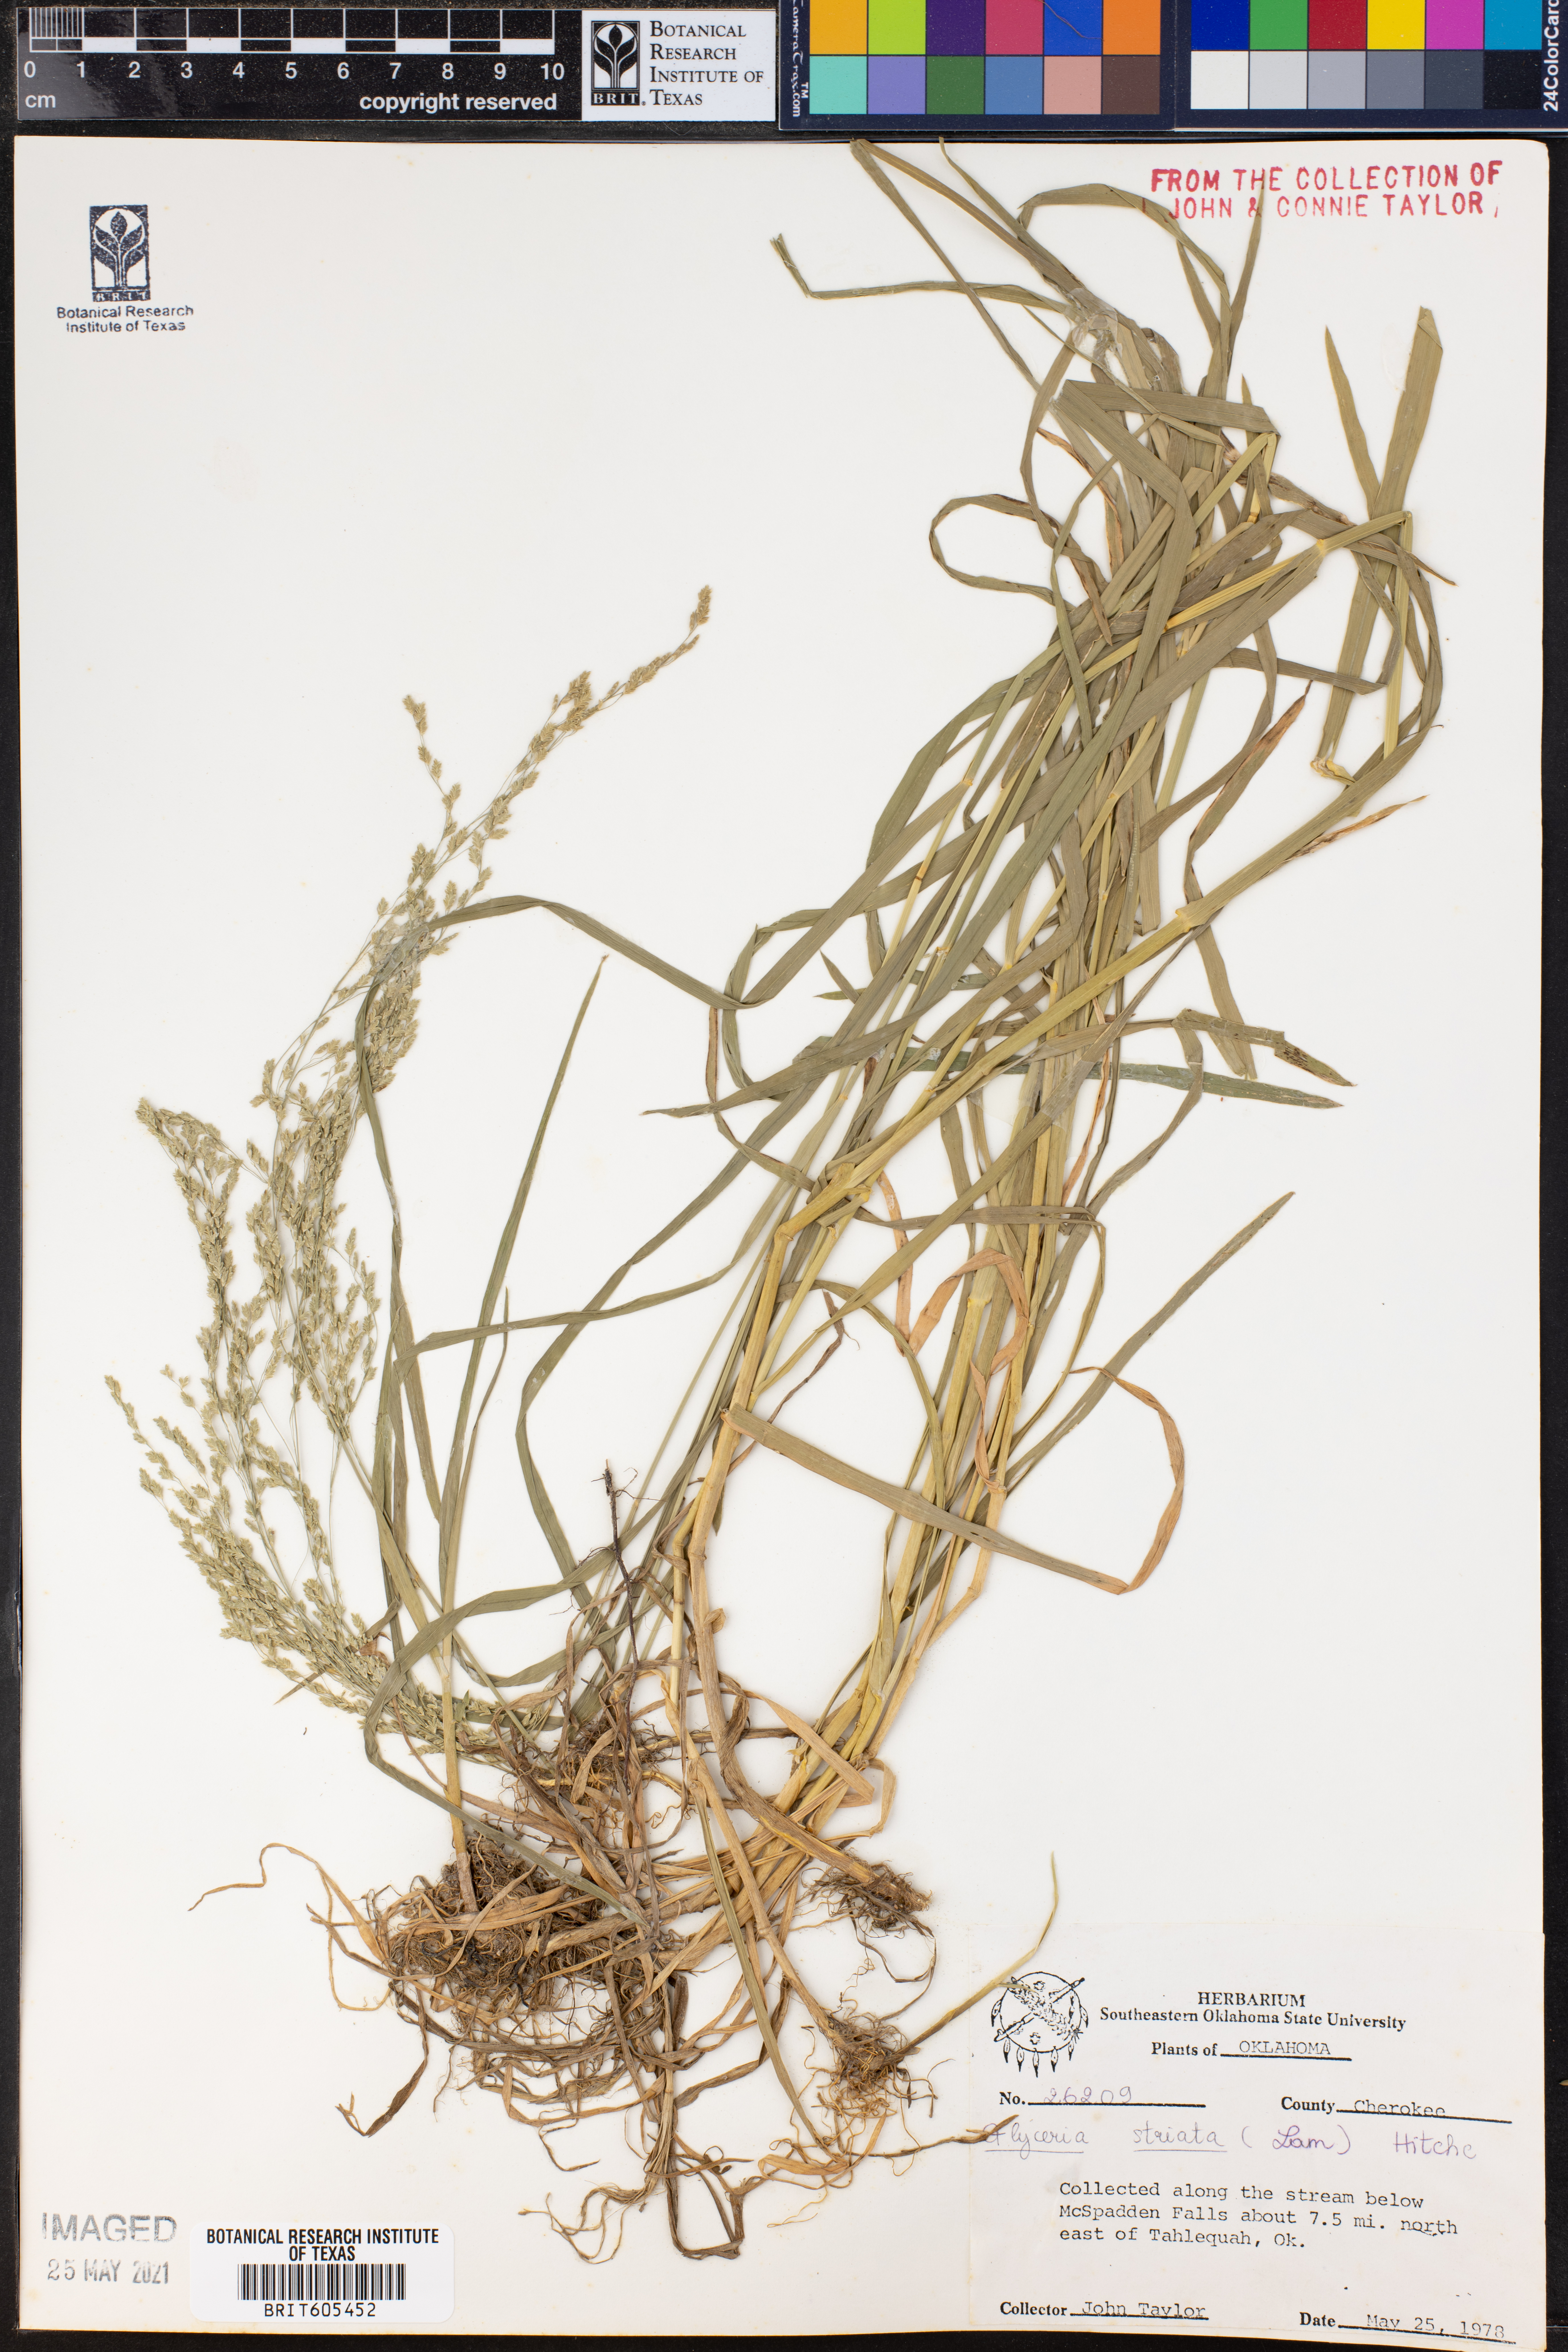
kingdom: Plantae
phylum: Tracheophyta
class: Liliopsida
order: Poales
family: Poaceae
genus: Glyceria
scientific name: Glyceria striata
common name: Fowl manna grass
